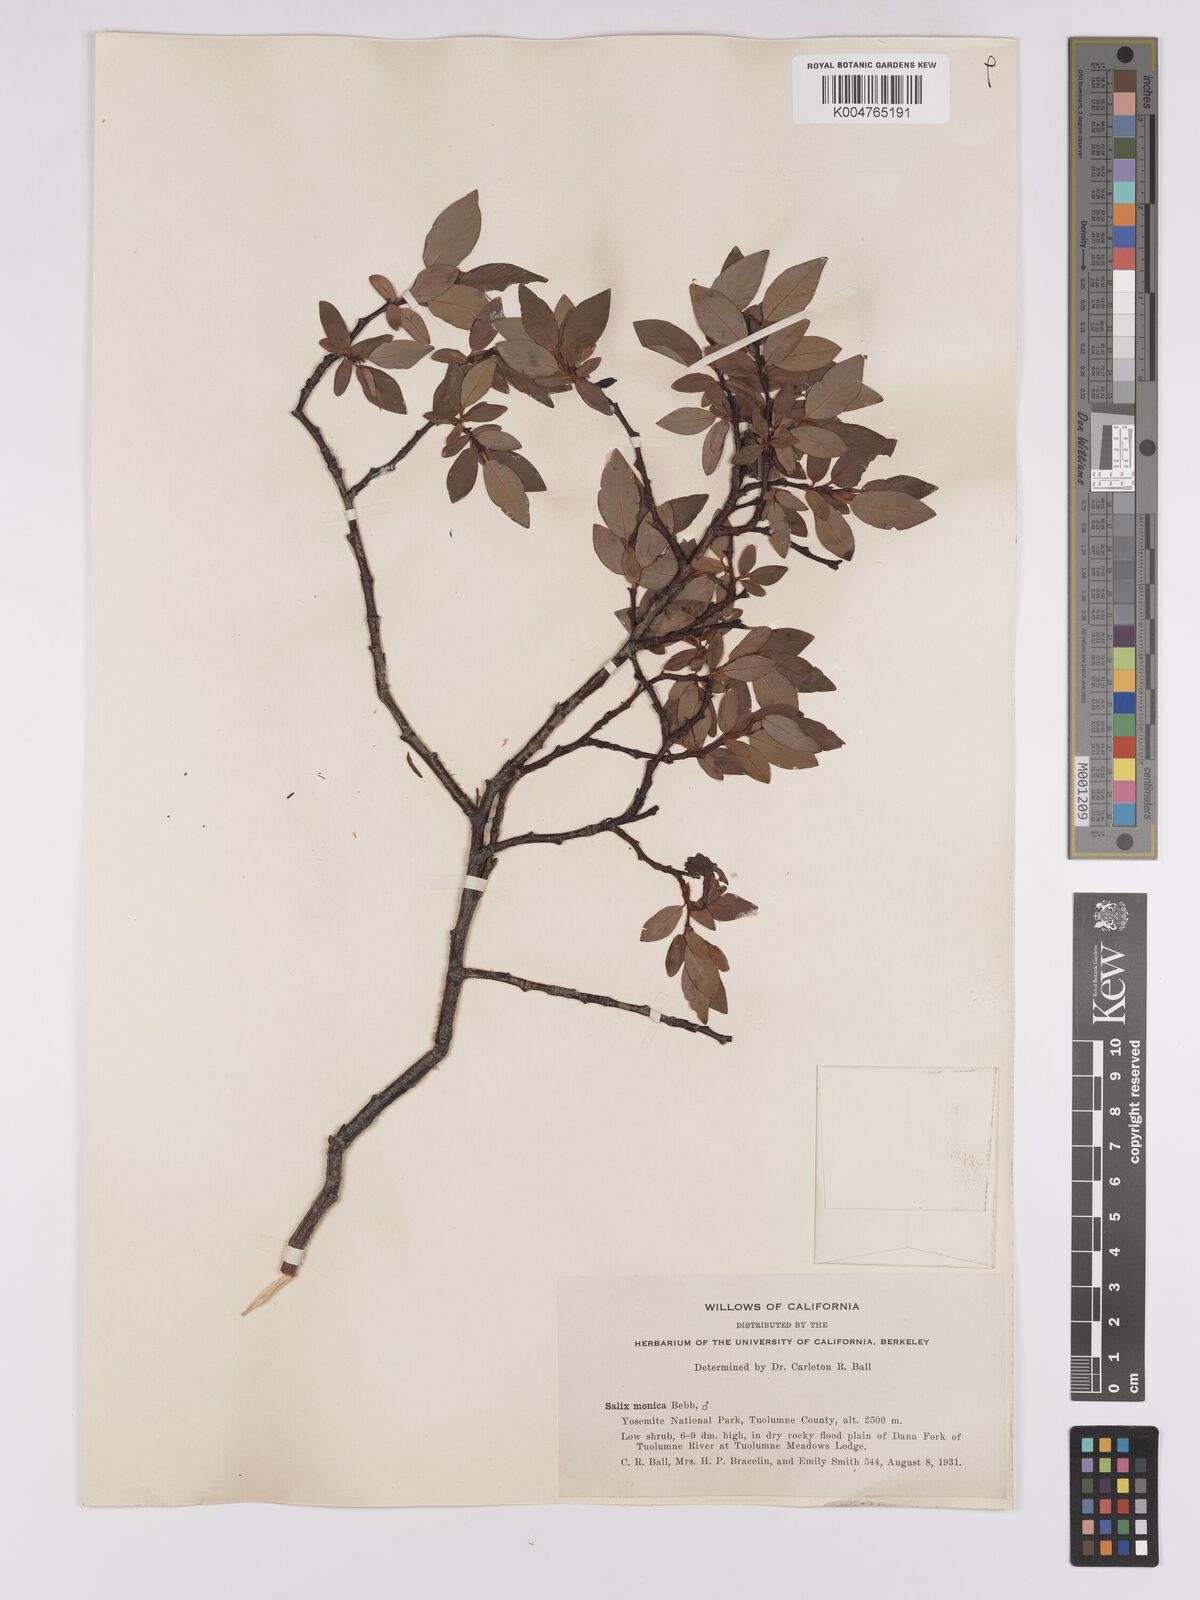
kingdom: Plantae
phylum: Tracheophyta
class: Magnoliopsida
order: Malpighiales
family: Salicaceae
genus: Salix
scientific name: Salix planifolia
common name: Mountain willow
